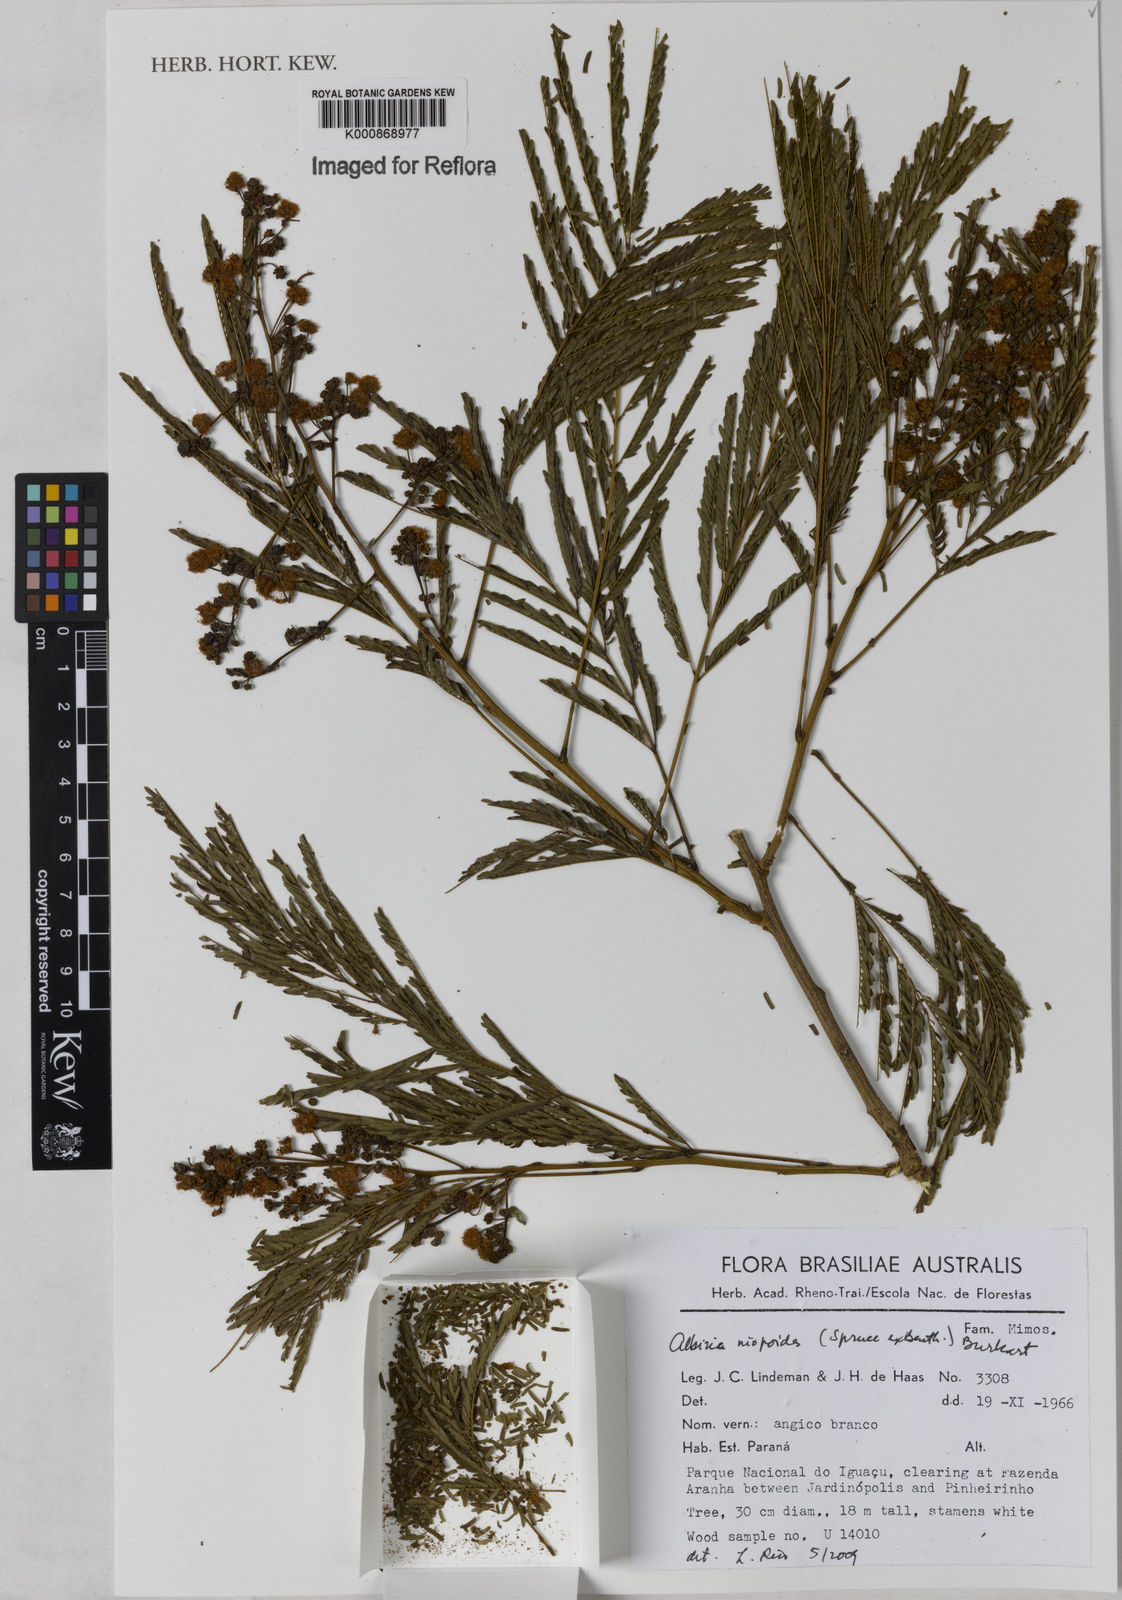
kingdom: Plantae
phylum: Tracheophyta
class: Magnoliopsida
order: Fabales
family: Fabaceae
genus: Albizia
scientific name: Albizia niopoides
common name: Silk tree
